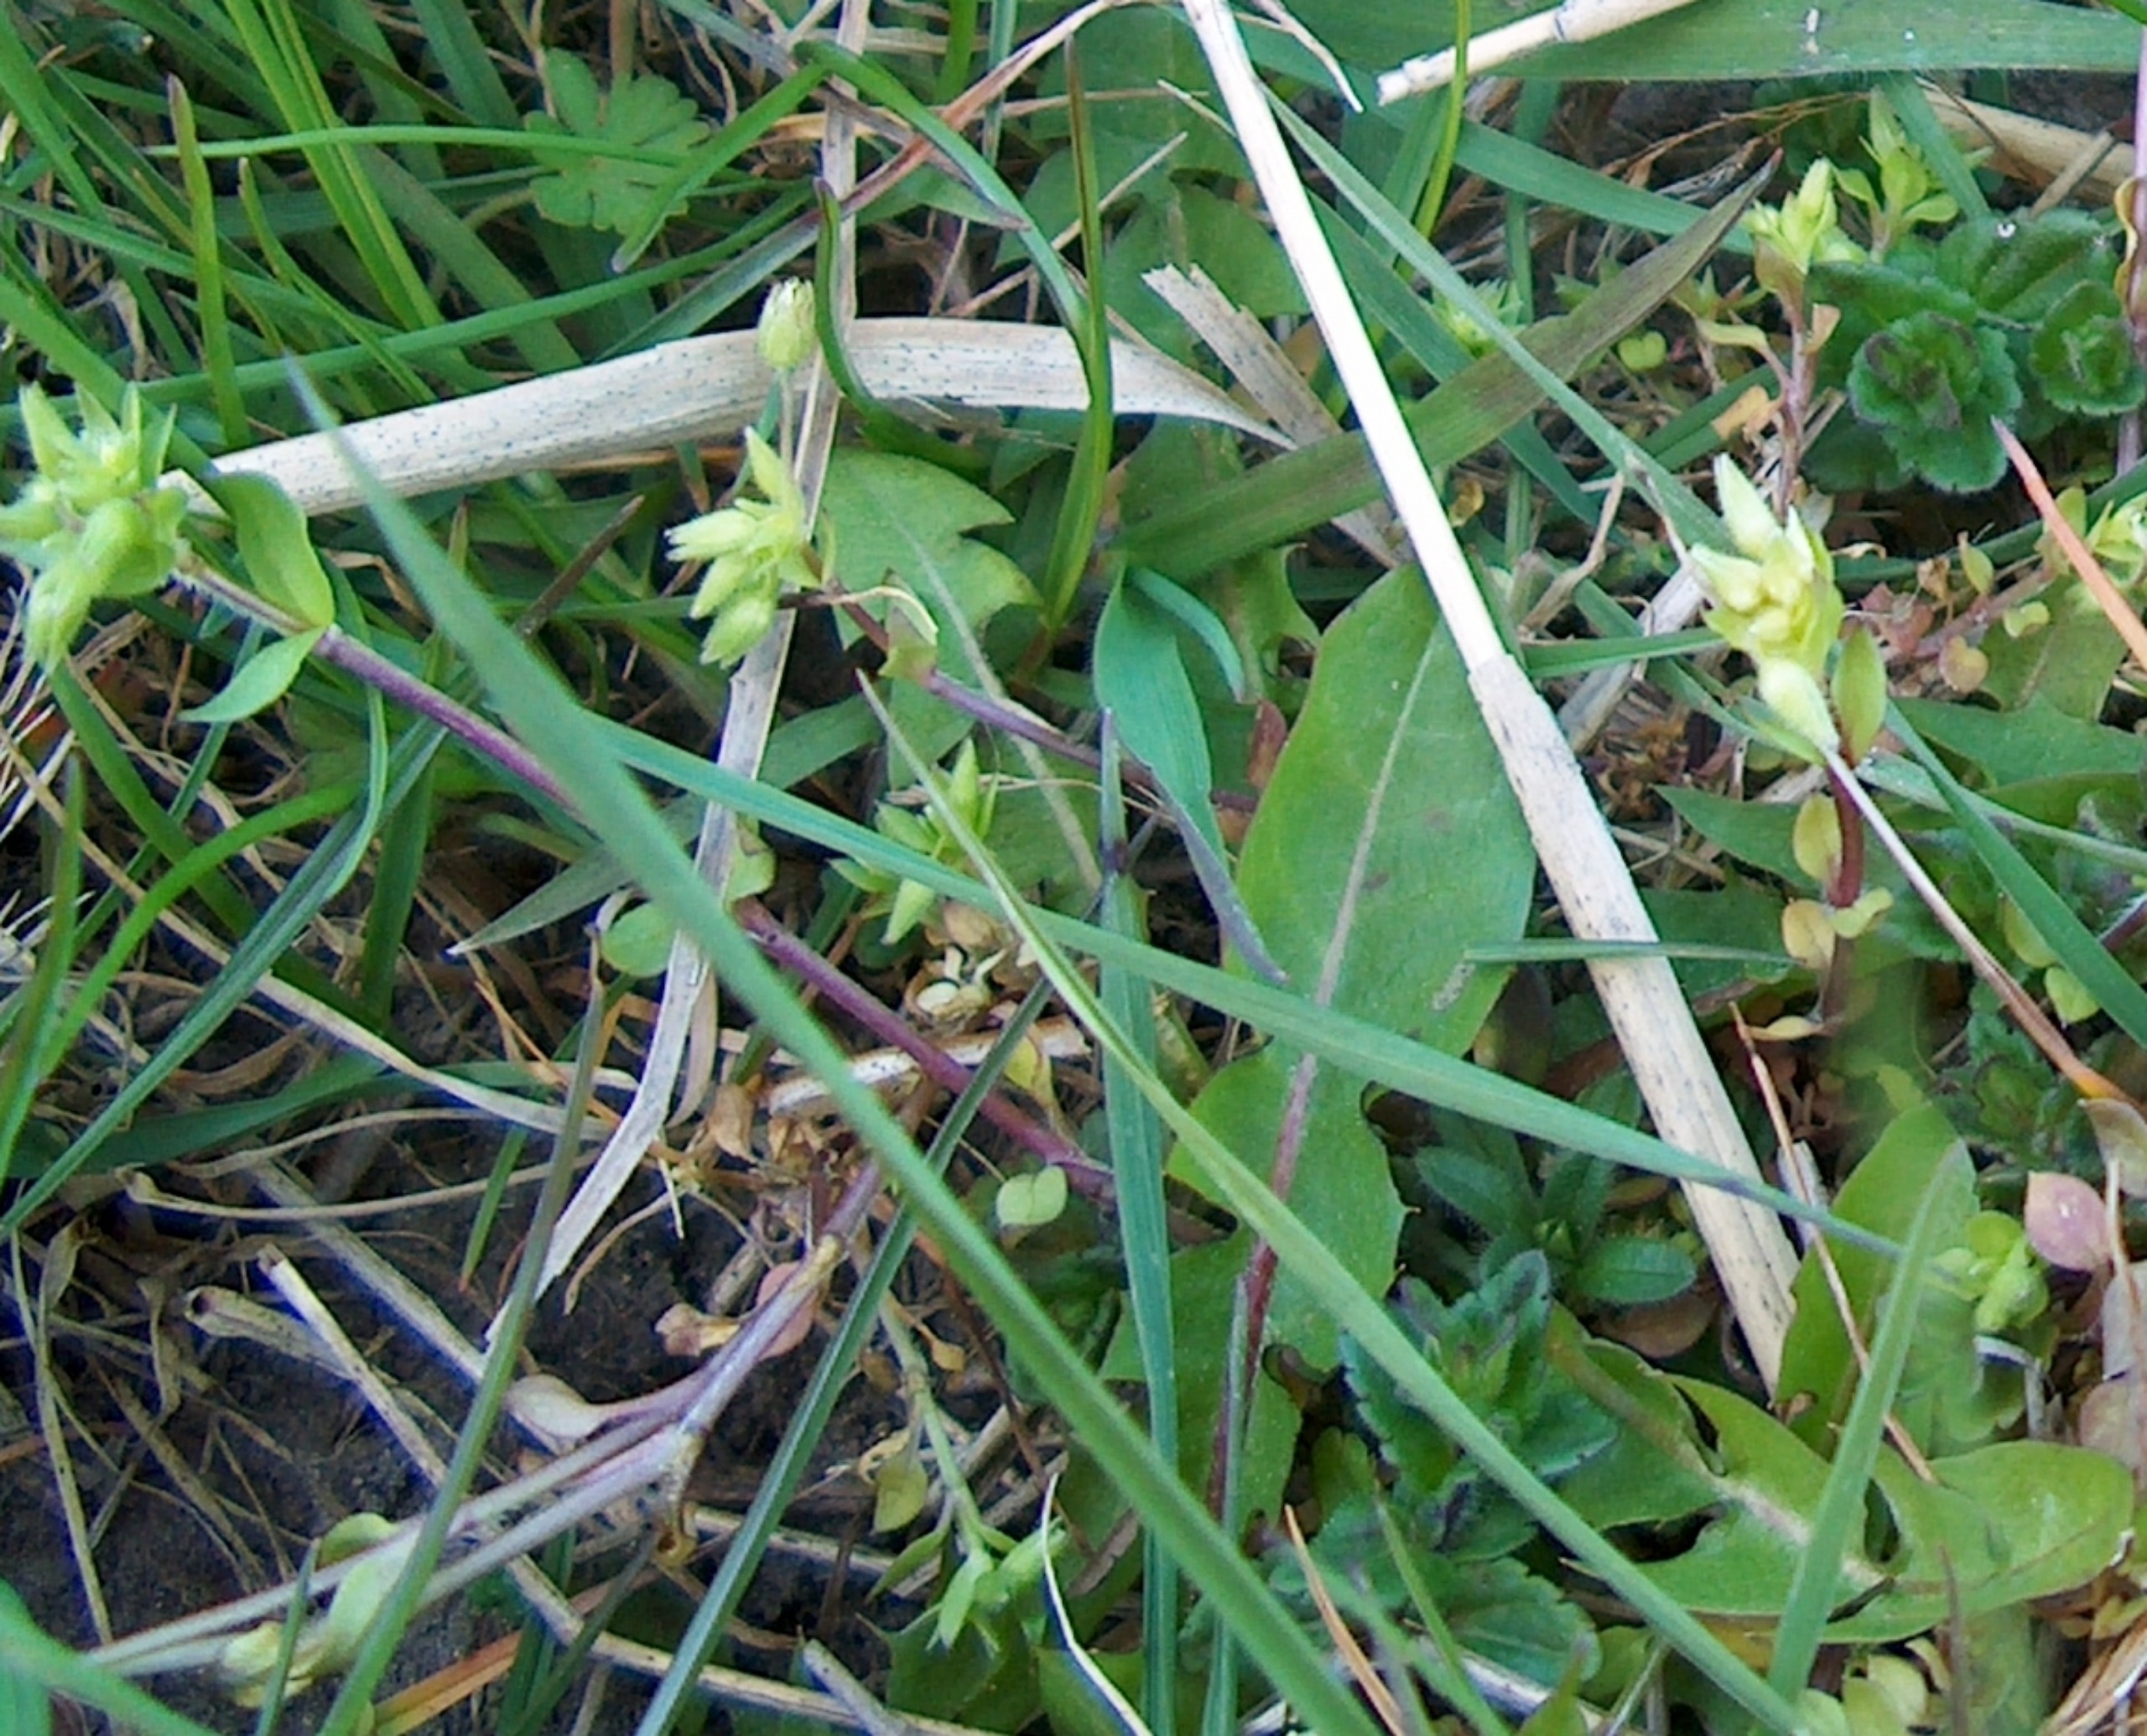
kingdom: Plantae
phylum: Tracheophyta
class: Magnoliopsida
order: Caryophyllales
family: Caryophyllaceae
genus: Stellaria
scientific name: Stellaria apetala
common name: Bleg fuglegræs
